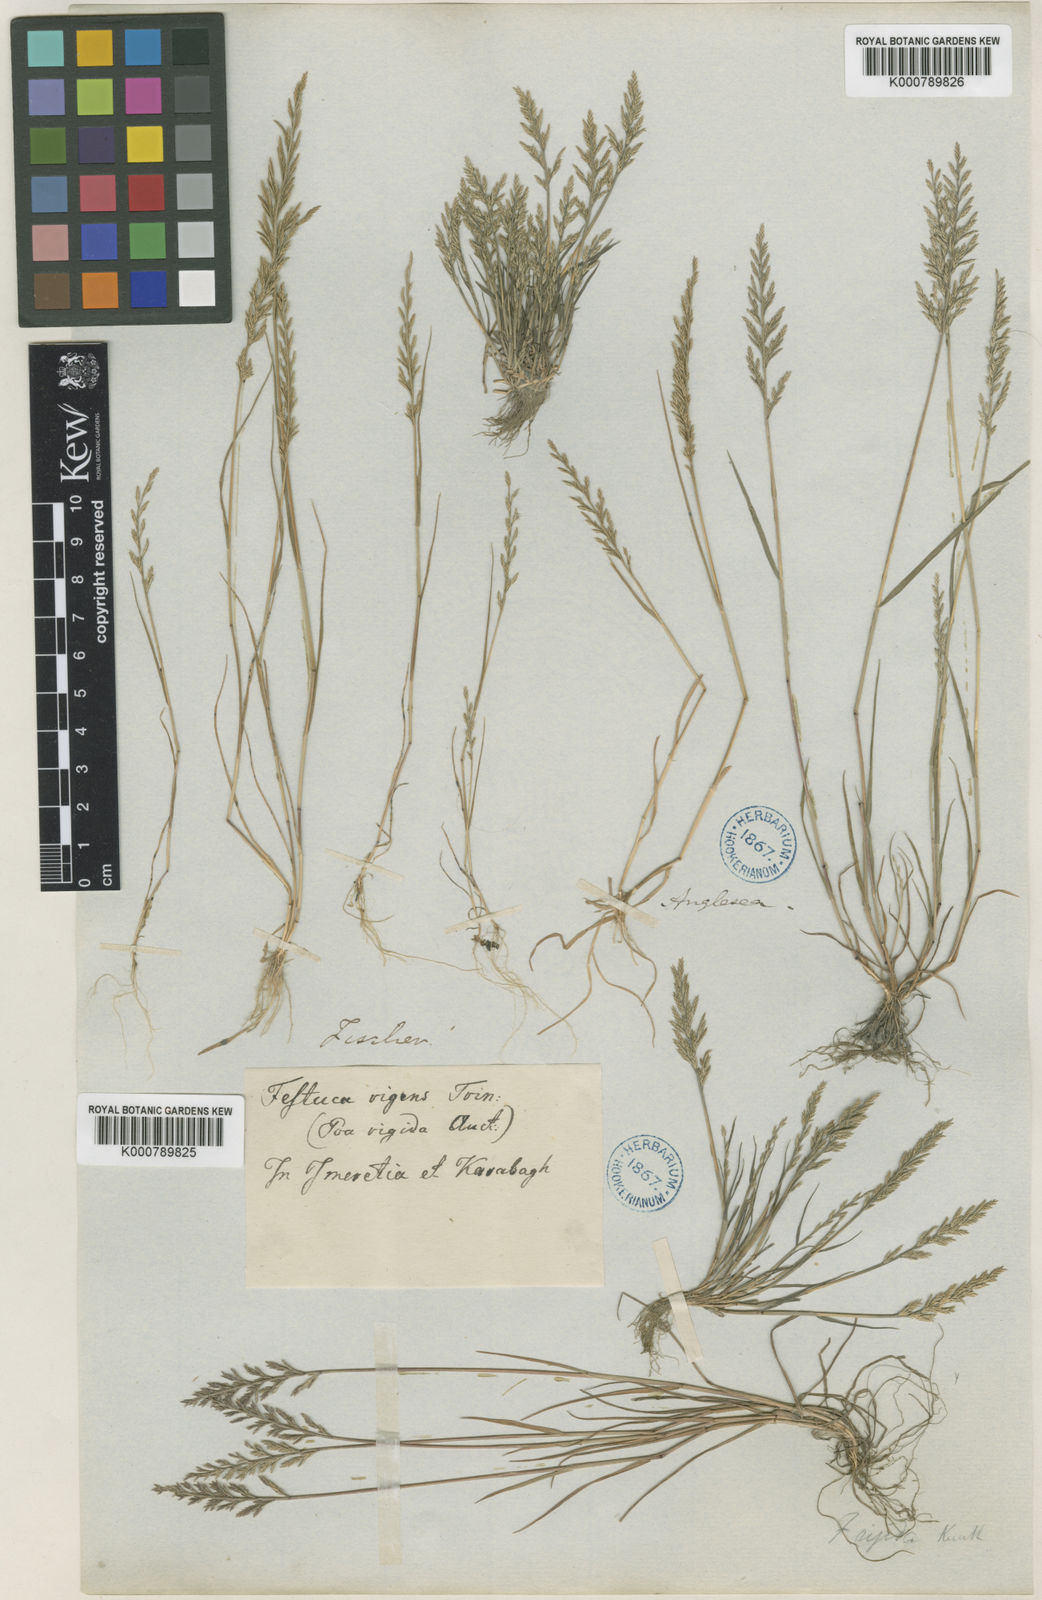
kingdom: Plantae
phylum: Tracheophyta
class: Liliopsida
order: Poales
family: Poaceae
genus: Catapodium
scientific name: Catapodium rigidum
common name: Fern-grass
